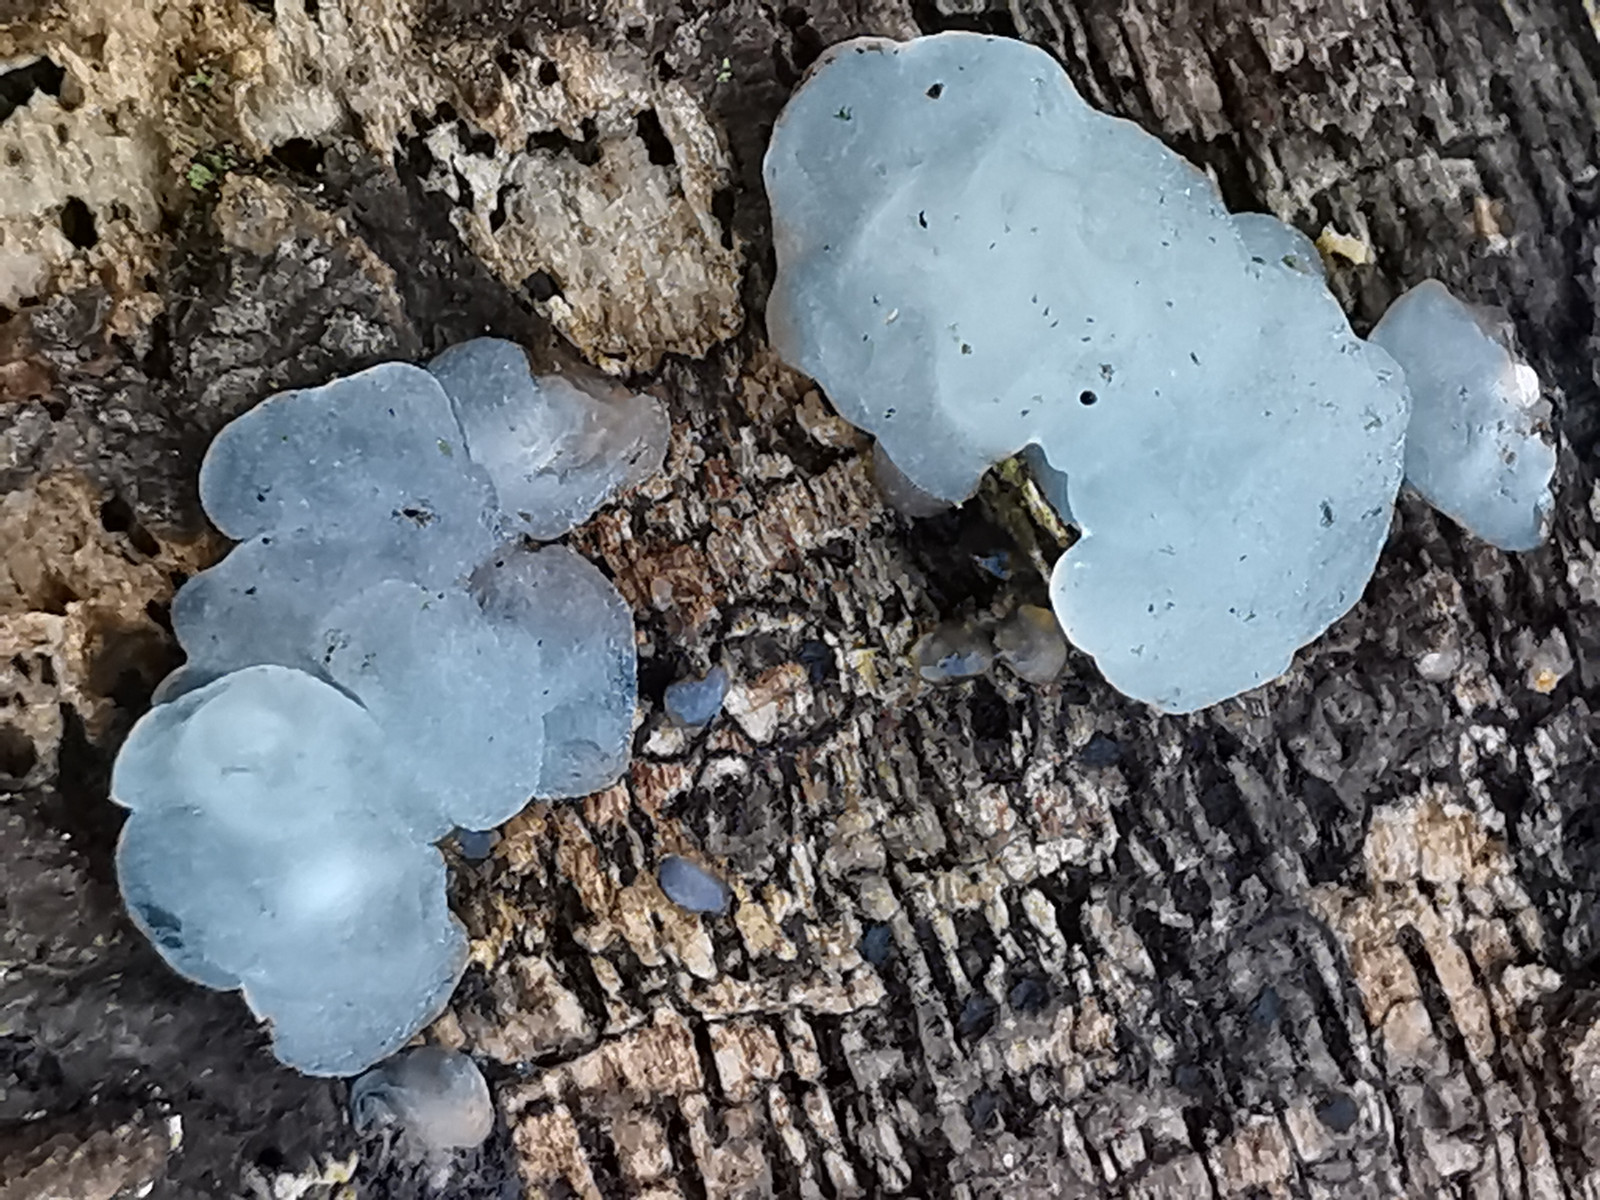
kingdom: Fungi
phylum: Basidiomycota
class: Agaricomycetes
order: Auriculariales
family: Hyaloriaceae
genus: Myxarium
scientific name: Myxarium nucleatum
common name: klar bævretop
